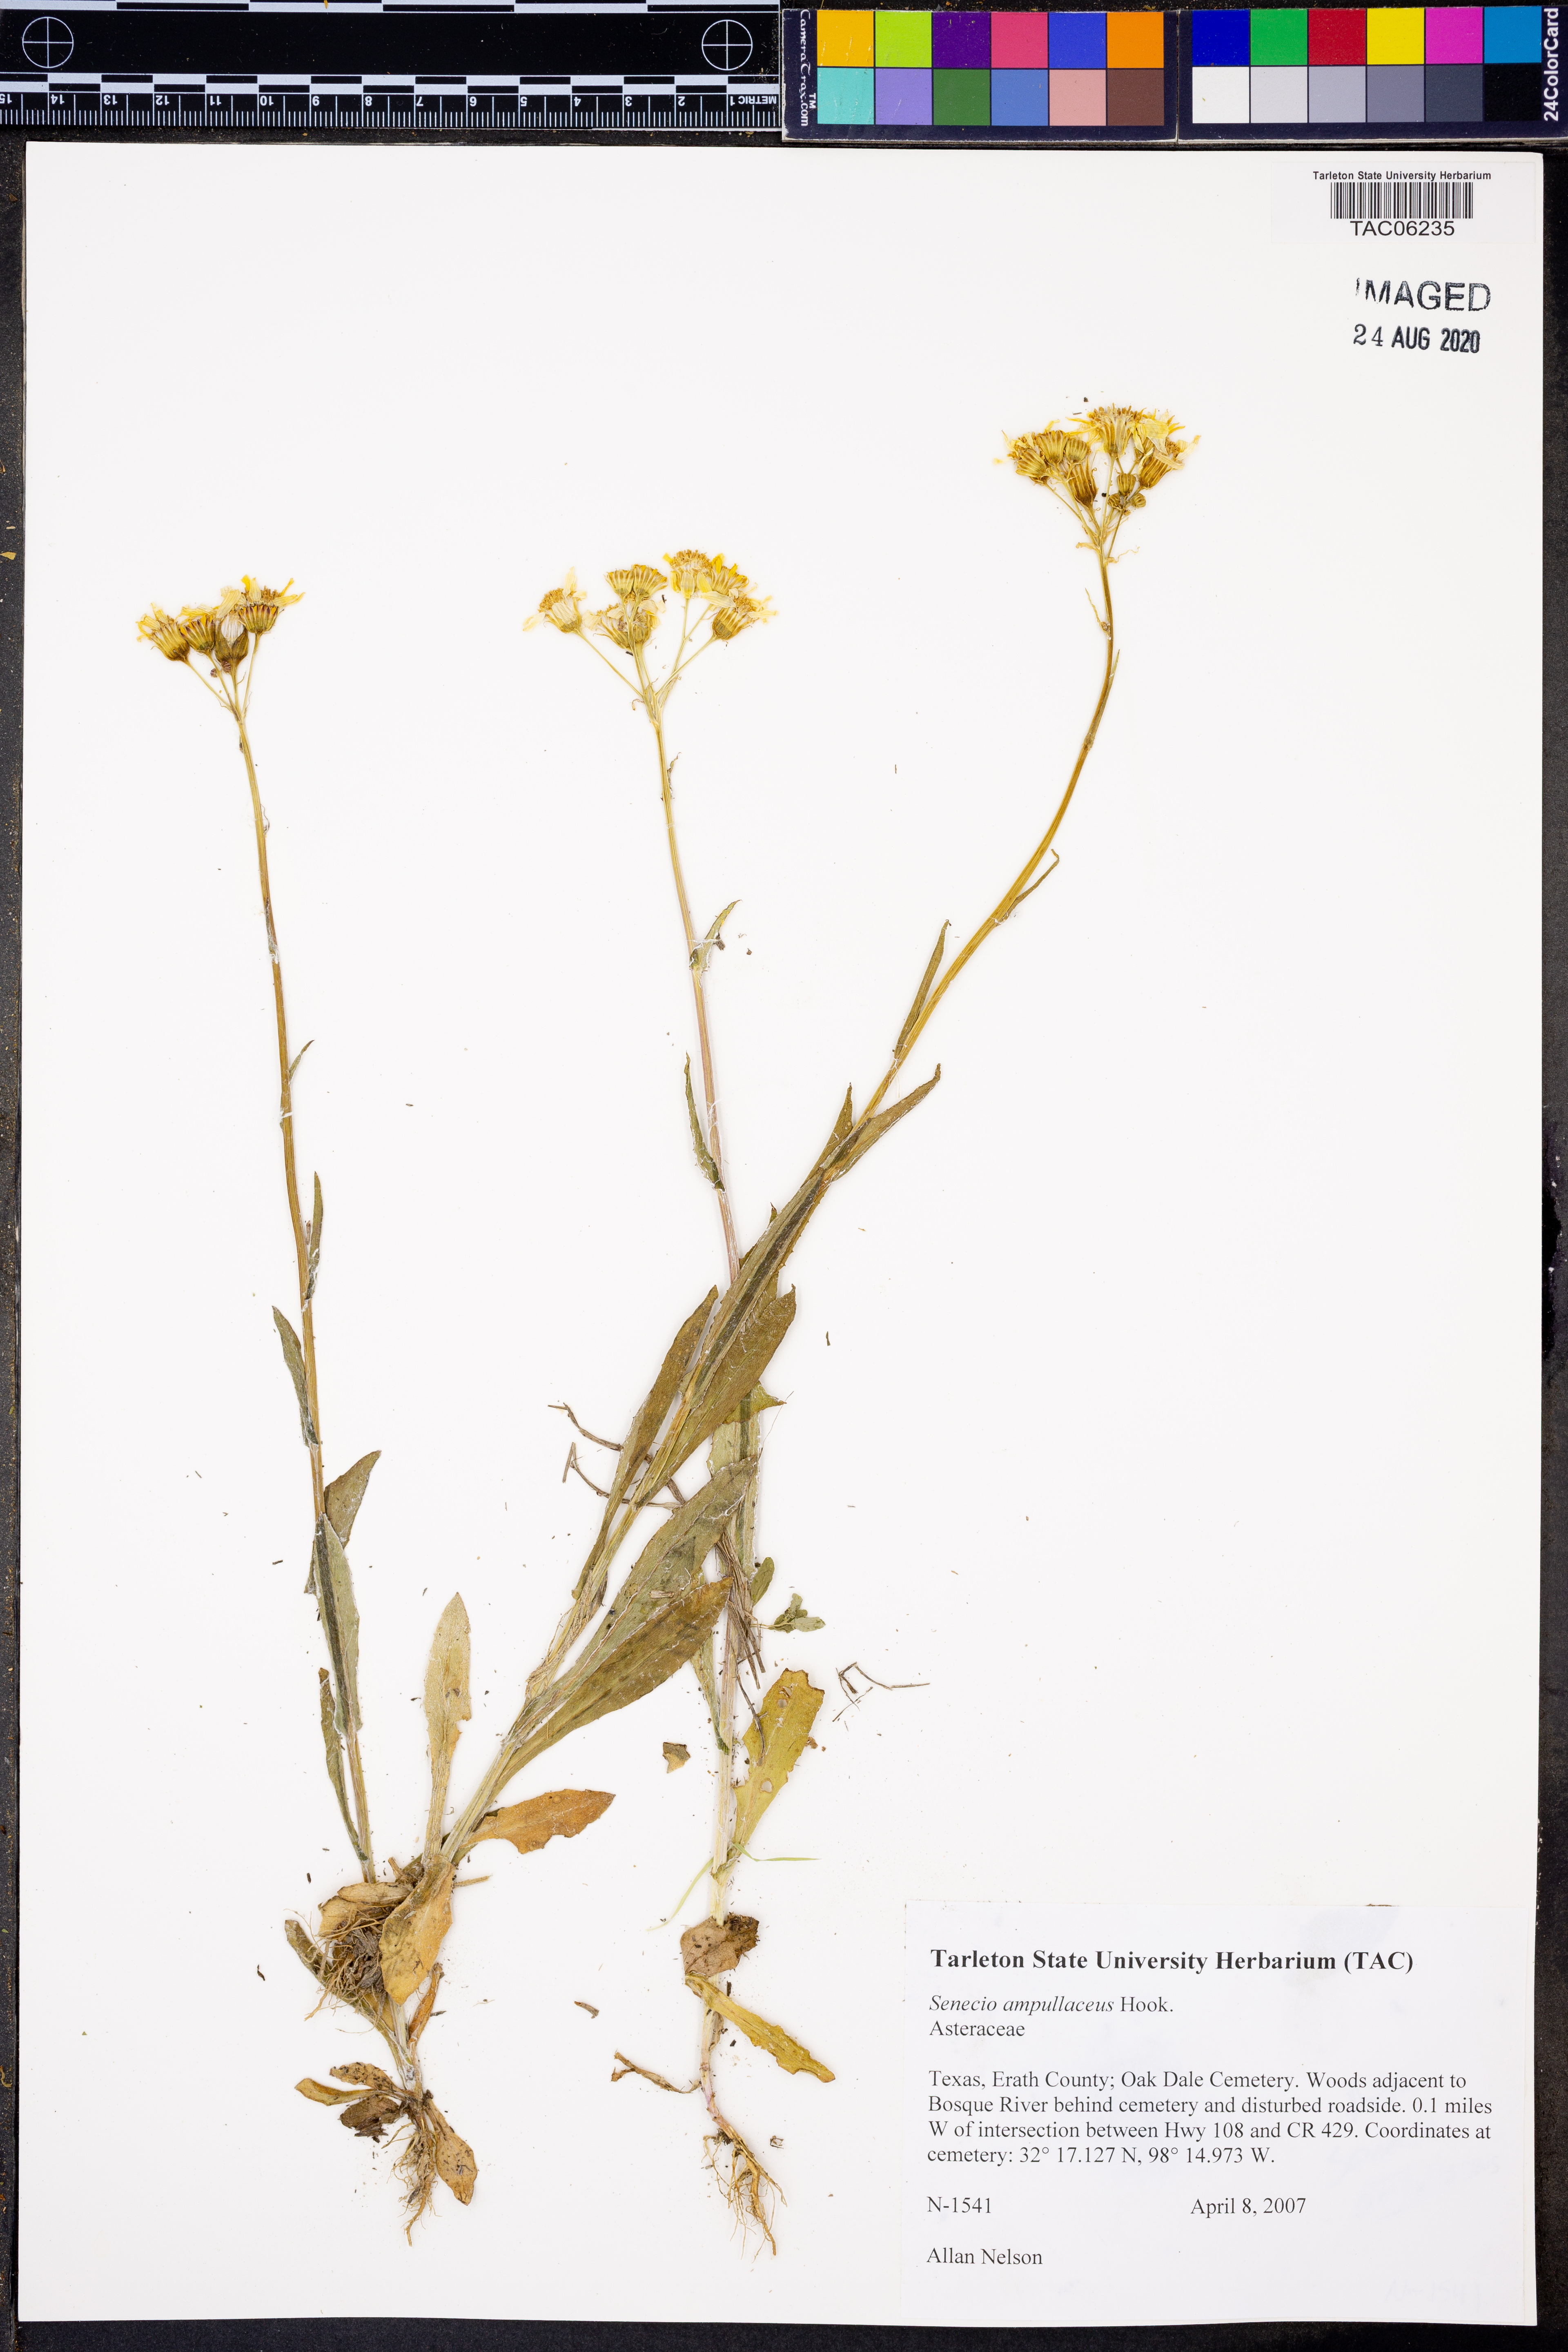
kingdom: Plantae
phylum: Tracheophyta
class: Magnoliopsida
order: Asterales
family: Asteraceae
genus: Senecio
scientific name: Senecio ampullaceus
